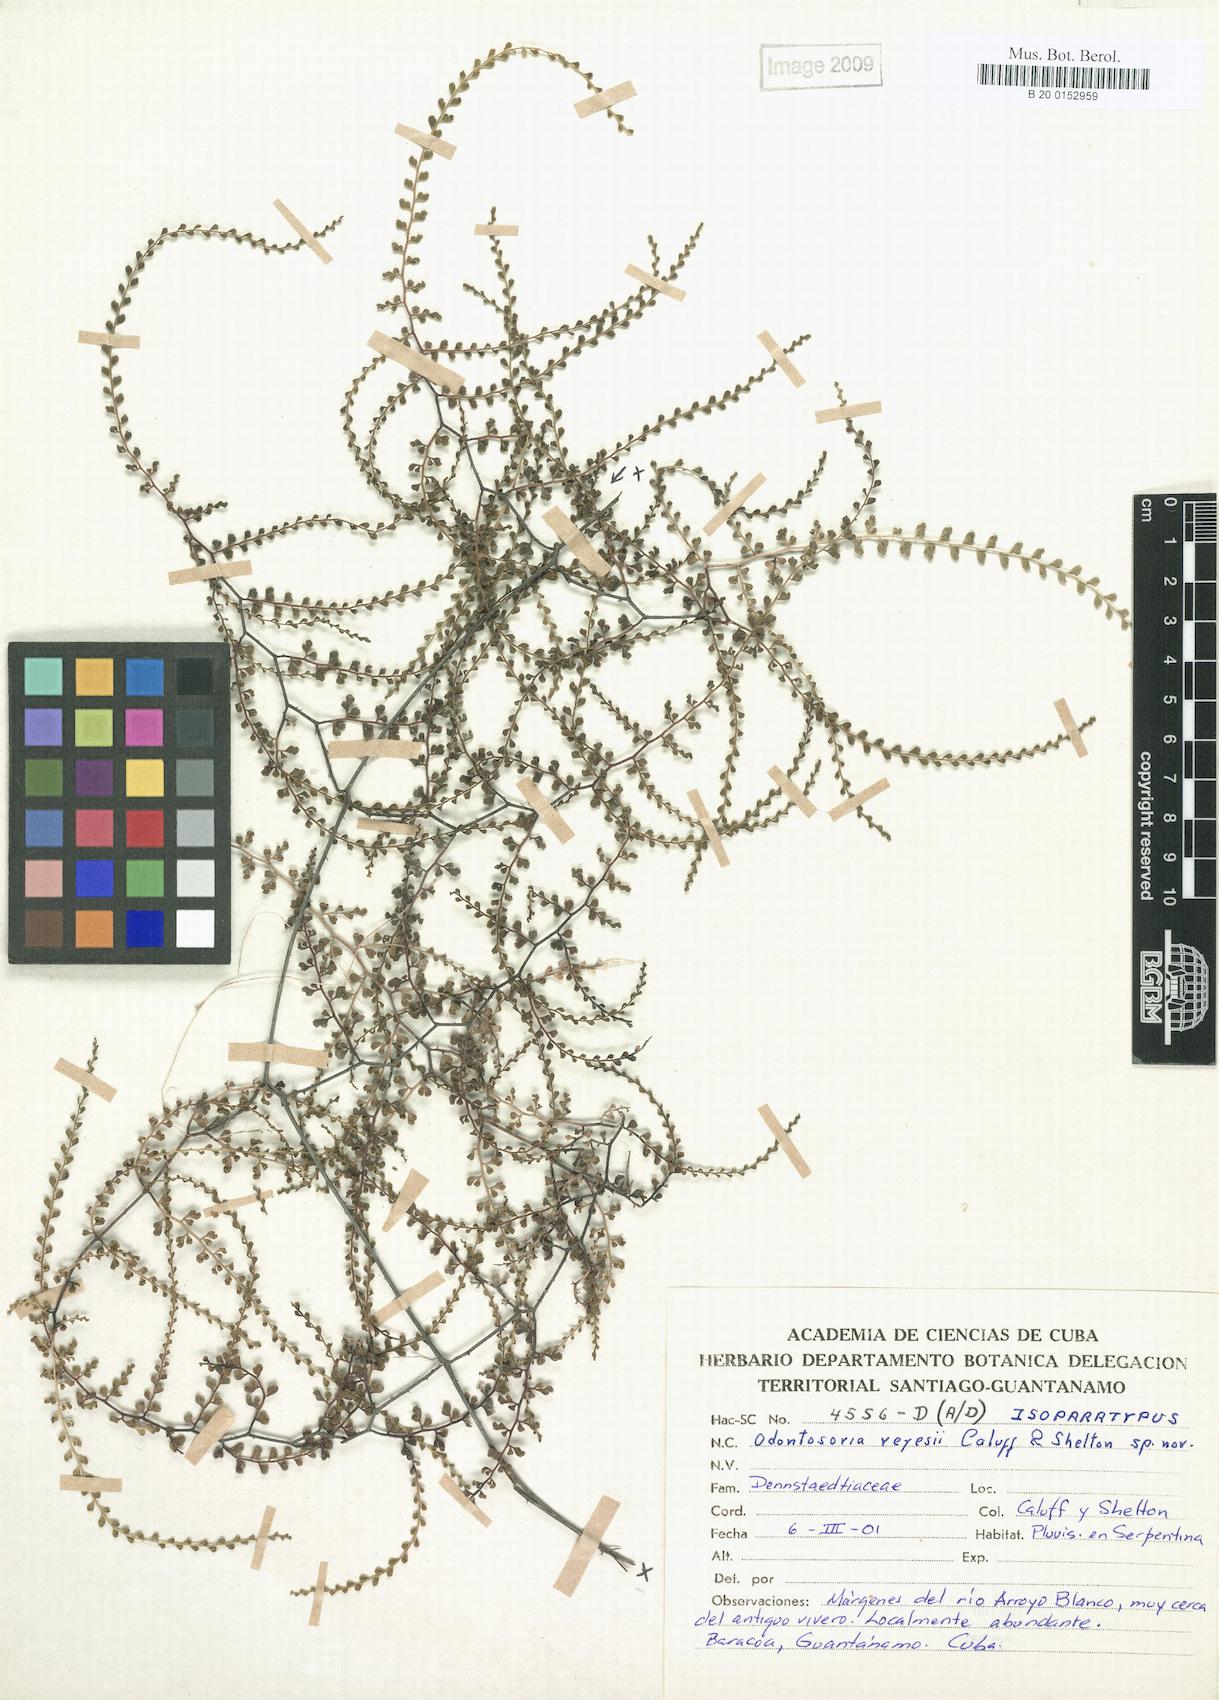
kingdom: Plantae
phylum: Tracheophyta
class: Polypodiopsida
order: Polypodiales
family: Lindsaeaceae
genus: Odontosoria
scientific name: Odontosoria reyesii
